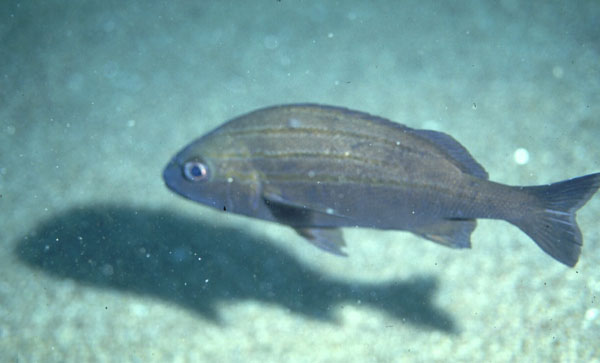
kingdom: Animalia
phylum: Chordata
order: Perciformes
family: Haemulidae
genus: Pomadasys
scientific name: Pomadasys striatus
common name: Striped grunter
